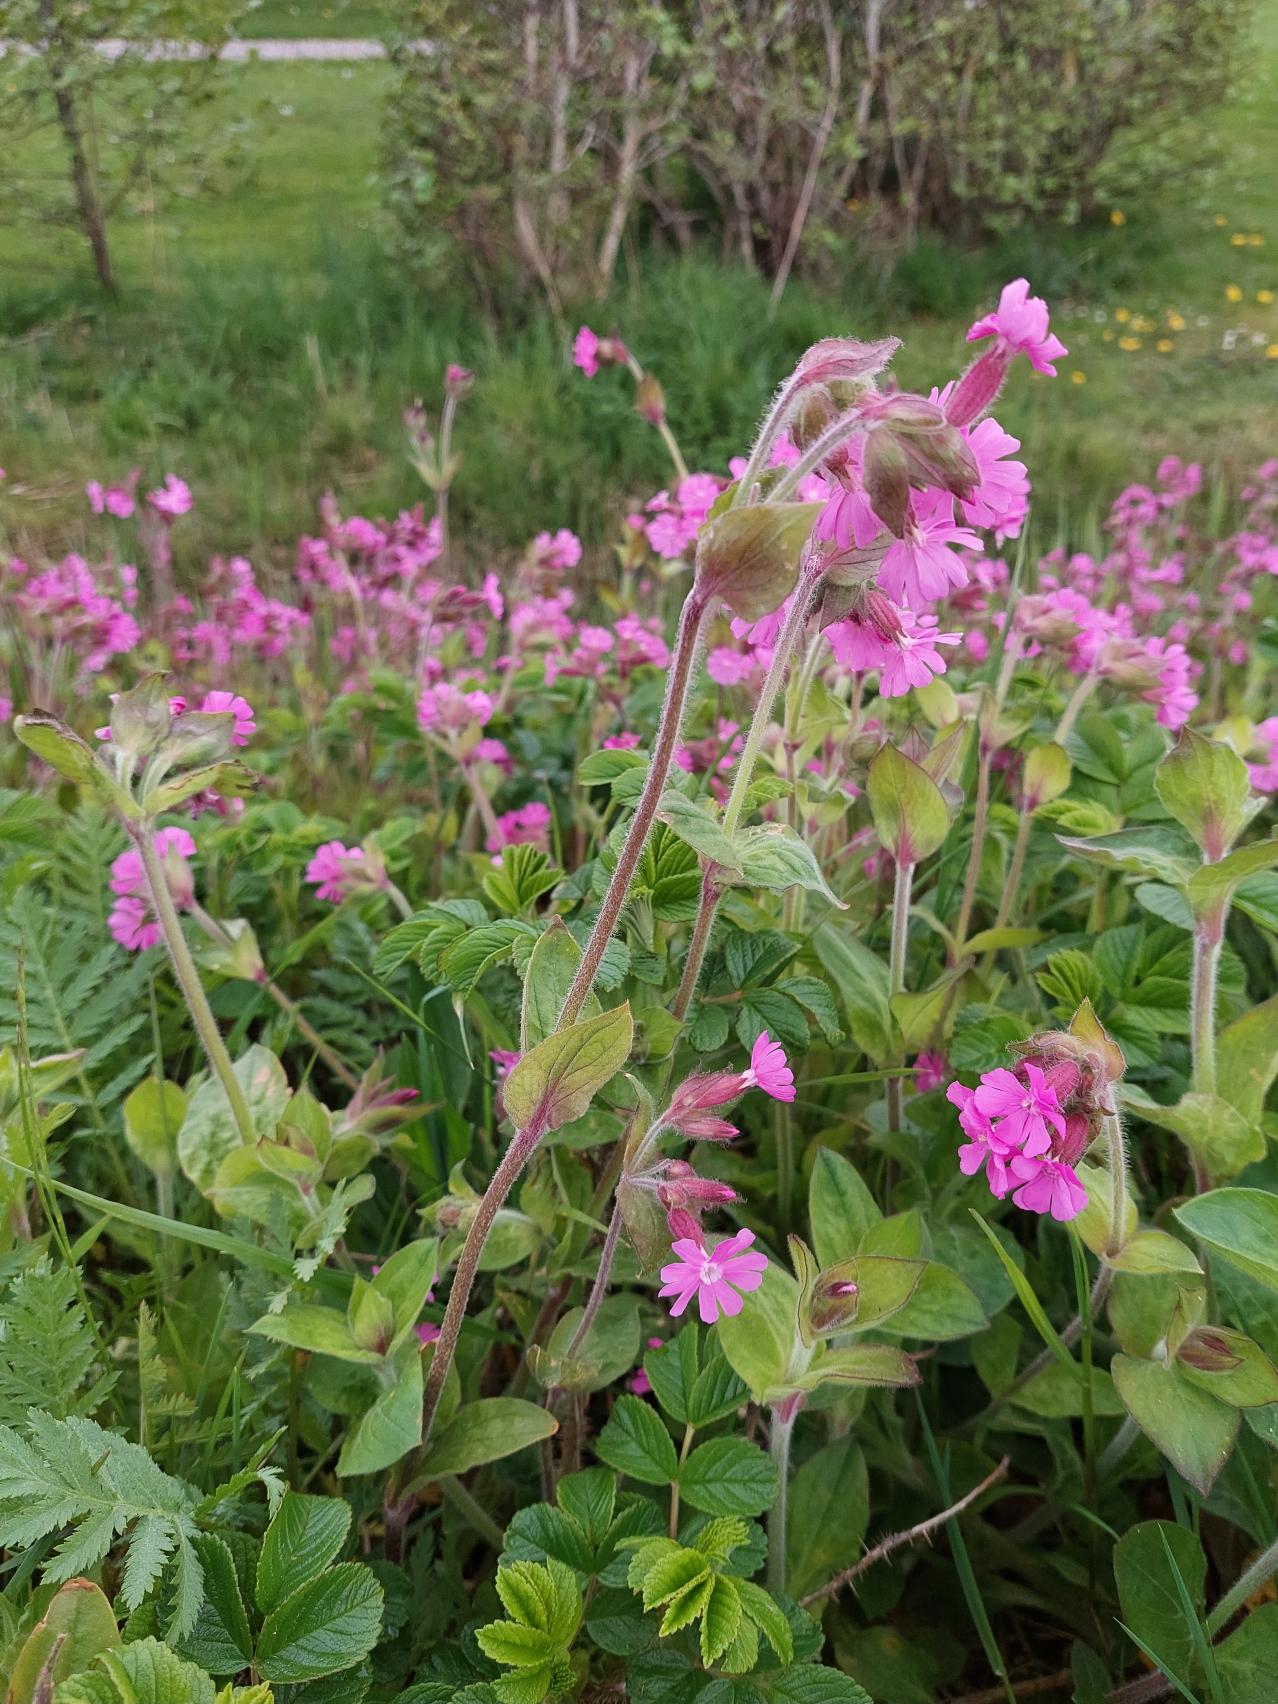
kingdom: Plantae
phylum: Tracheophyta
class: Magnoliopsida
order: Caryophyllales
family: Caryophyllaceae
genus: Silene
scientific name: Silene dioica
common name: Dagpragtstjerne
